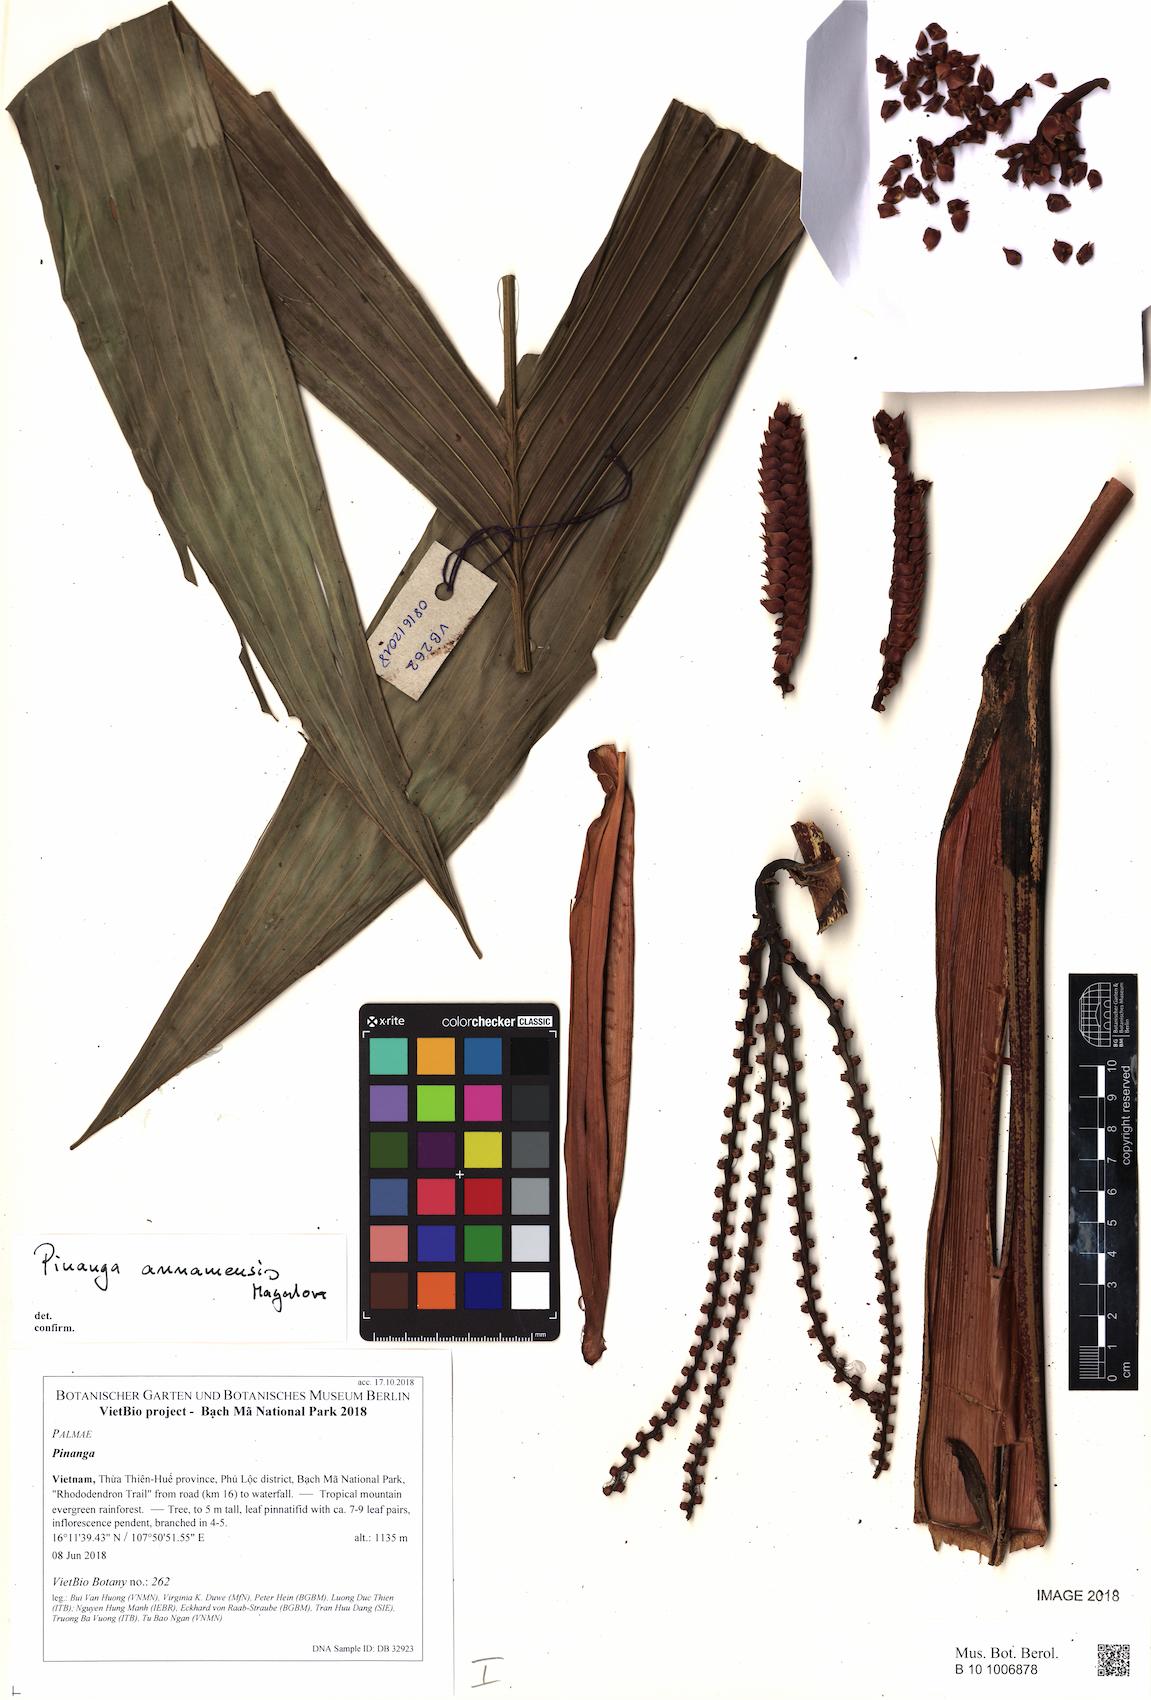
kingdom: Plantae
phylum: Tracheophyta
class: Liliopsida
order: Arecales
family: Arecaceae
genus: Pinanga
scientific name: Pinanga annamensis
